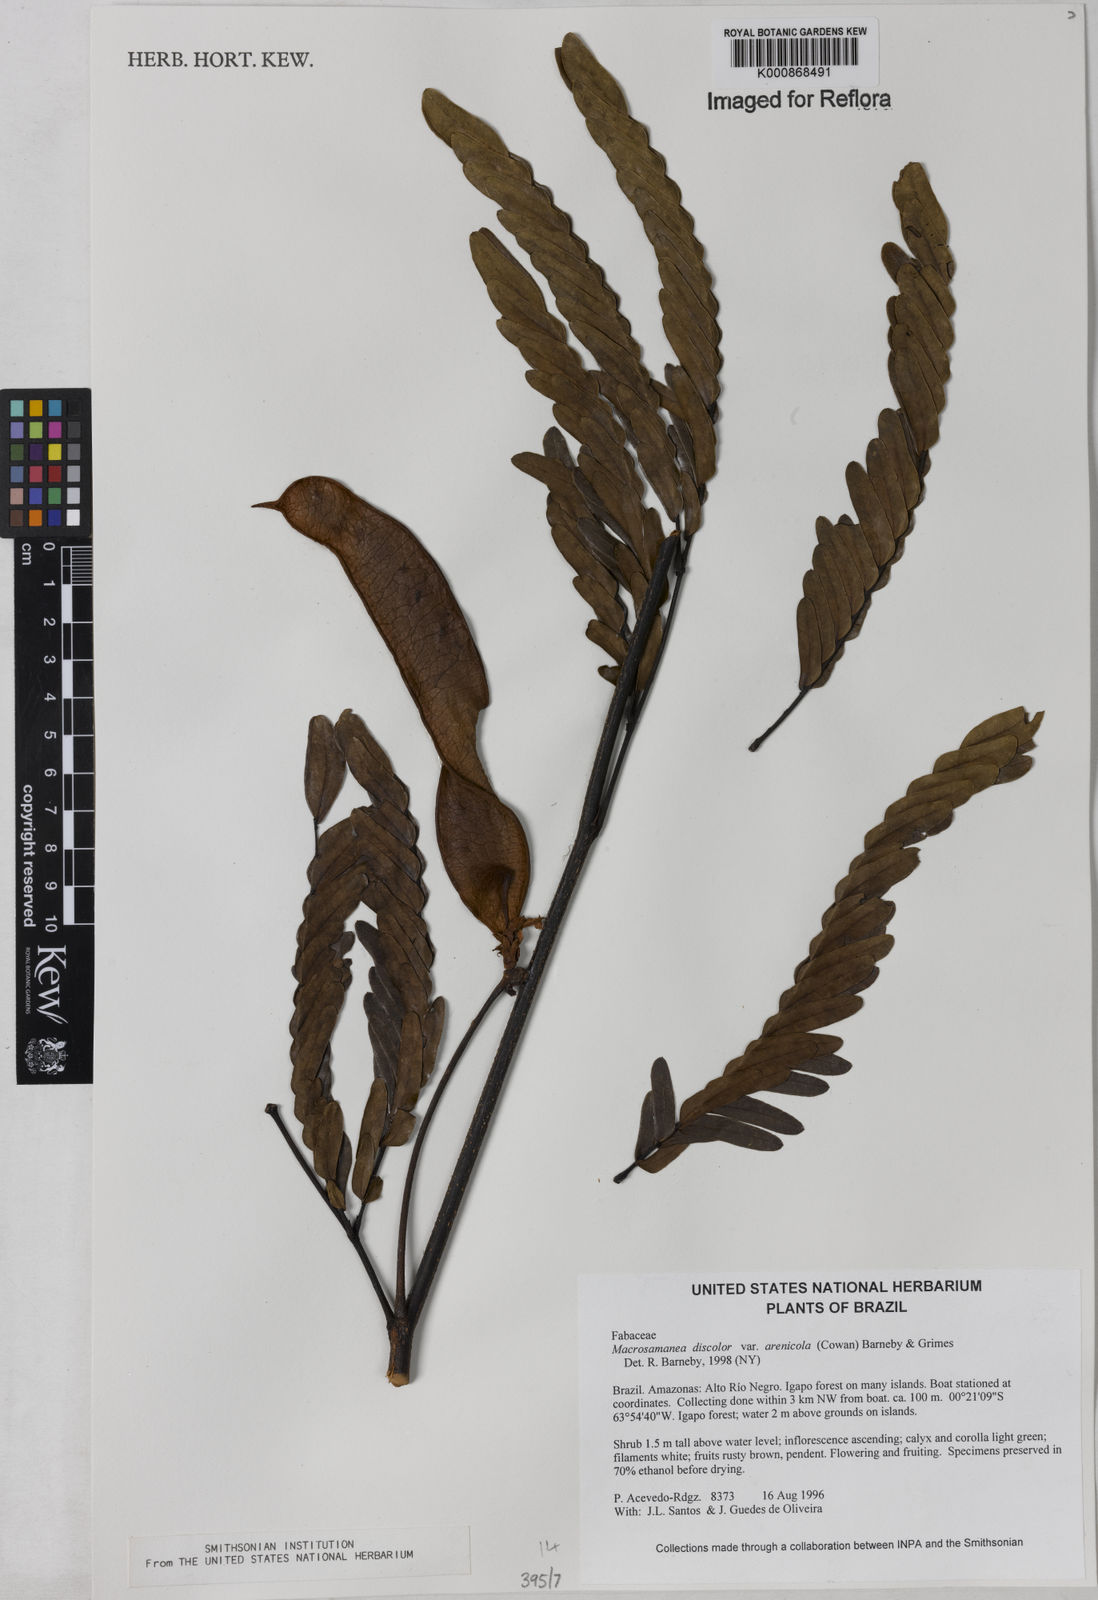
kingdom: Plantae
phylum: Tracheophyta
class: Magnoliopsida
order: Fabales
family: Fabaceae
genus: Macrosamanea
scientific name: Macrosamanea discolor
